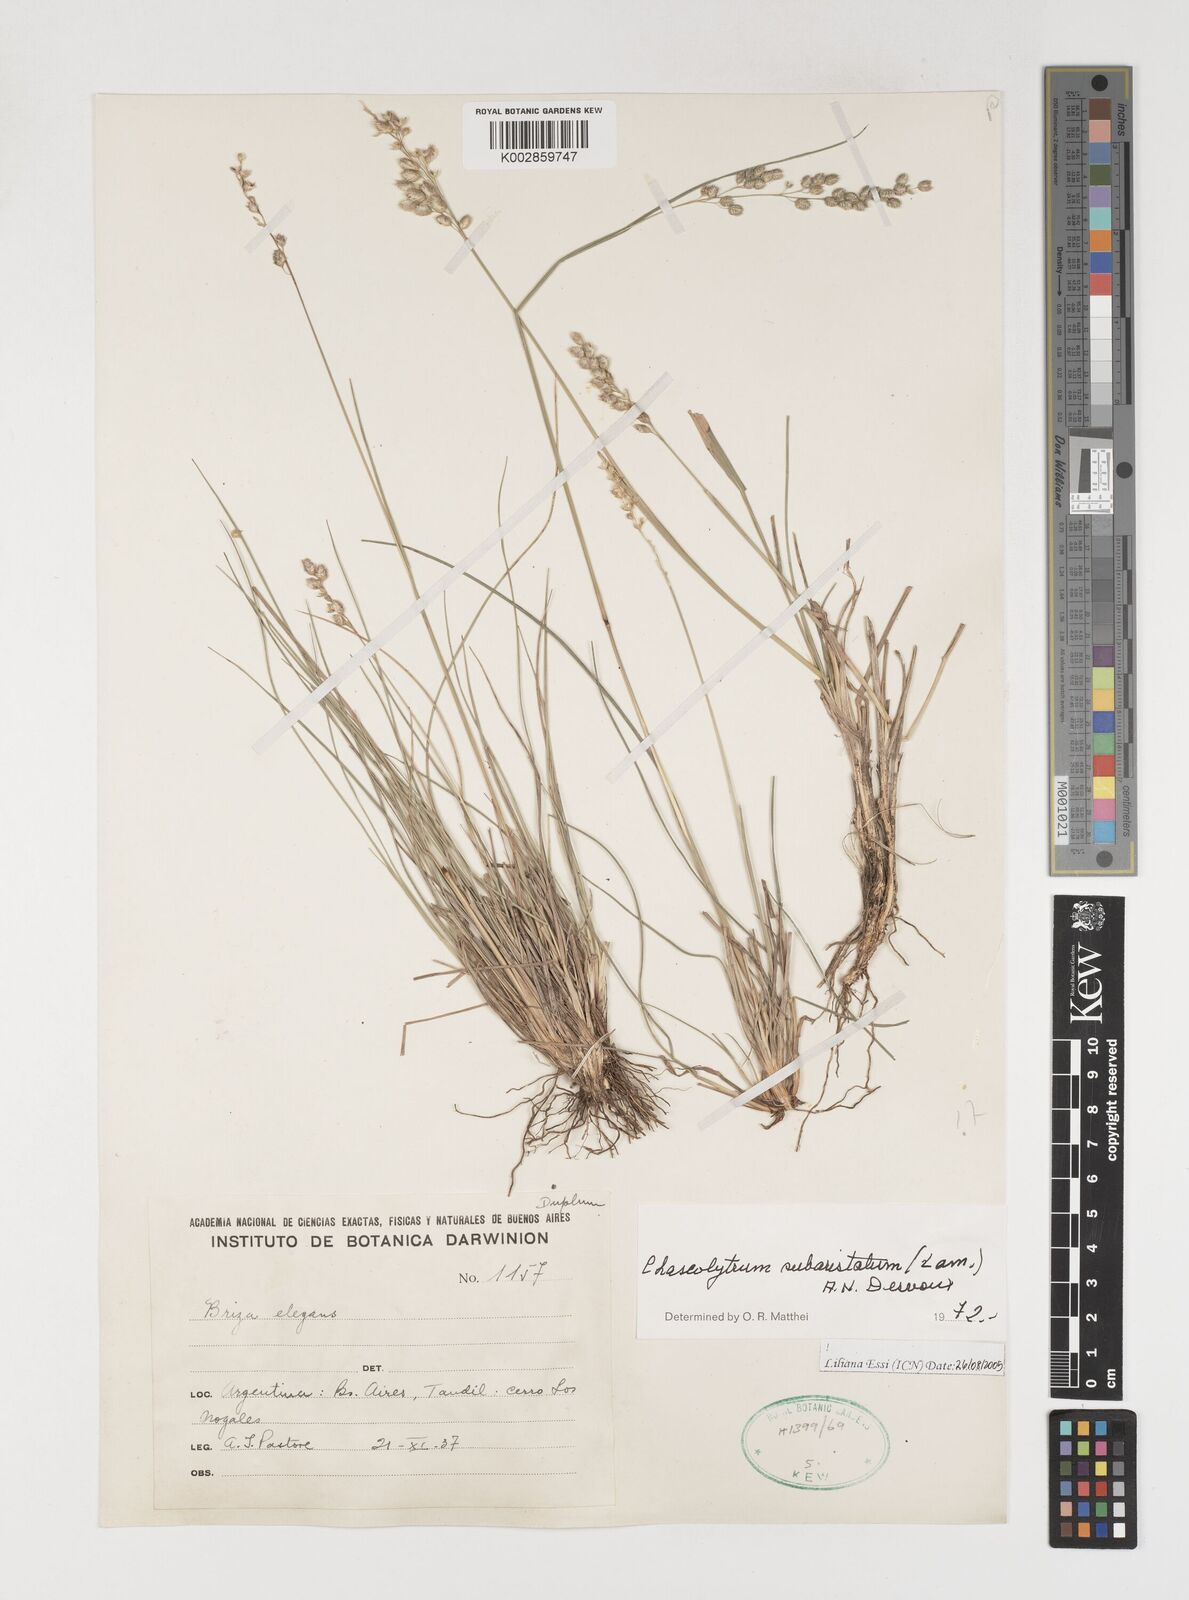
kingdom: Plantae
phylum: Tracheophyta
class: Liliopsida
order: Poales
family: Poaceae
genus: Chascolytrum
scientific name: Chascolytrum subaristatum
